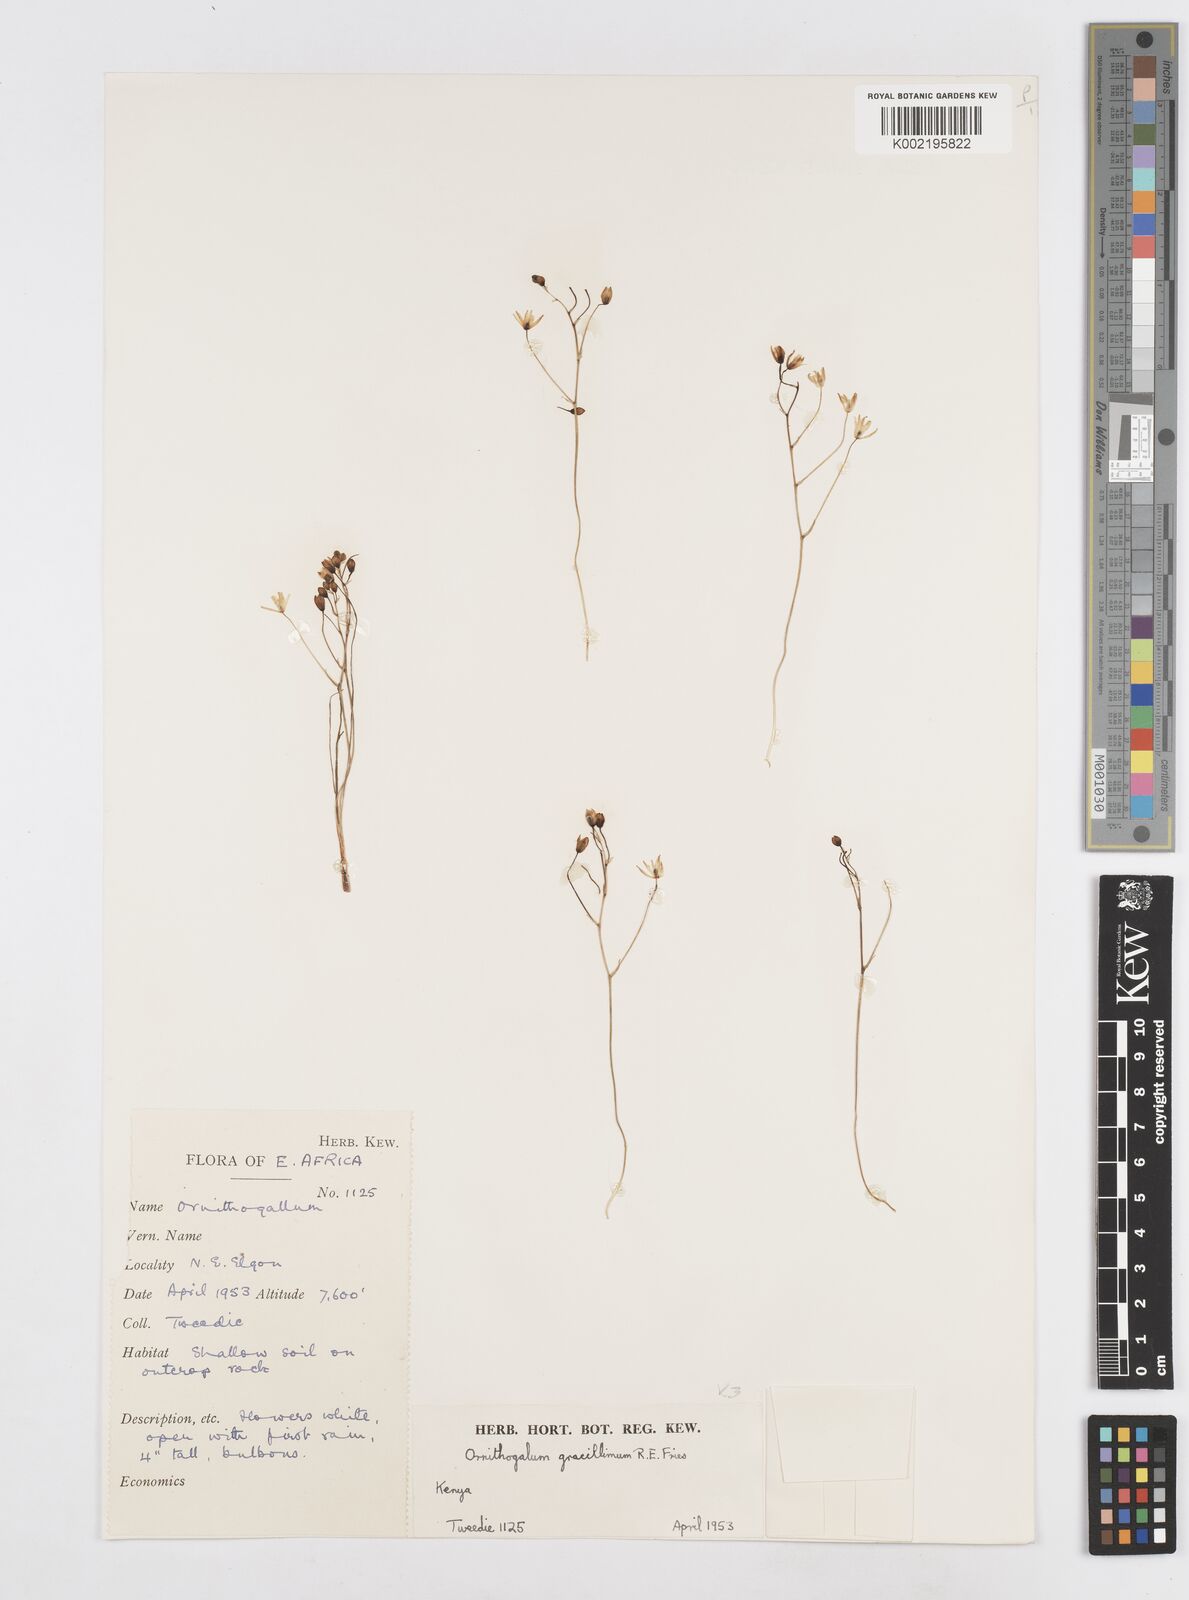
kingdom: Plantae
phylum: Tracheophyta
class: Liliopsida
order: Asparagales
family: Asparagaceae
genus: Ornithogalum
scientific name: Ornithogalum gracillimum
